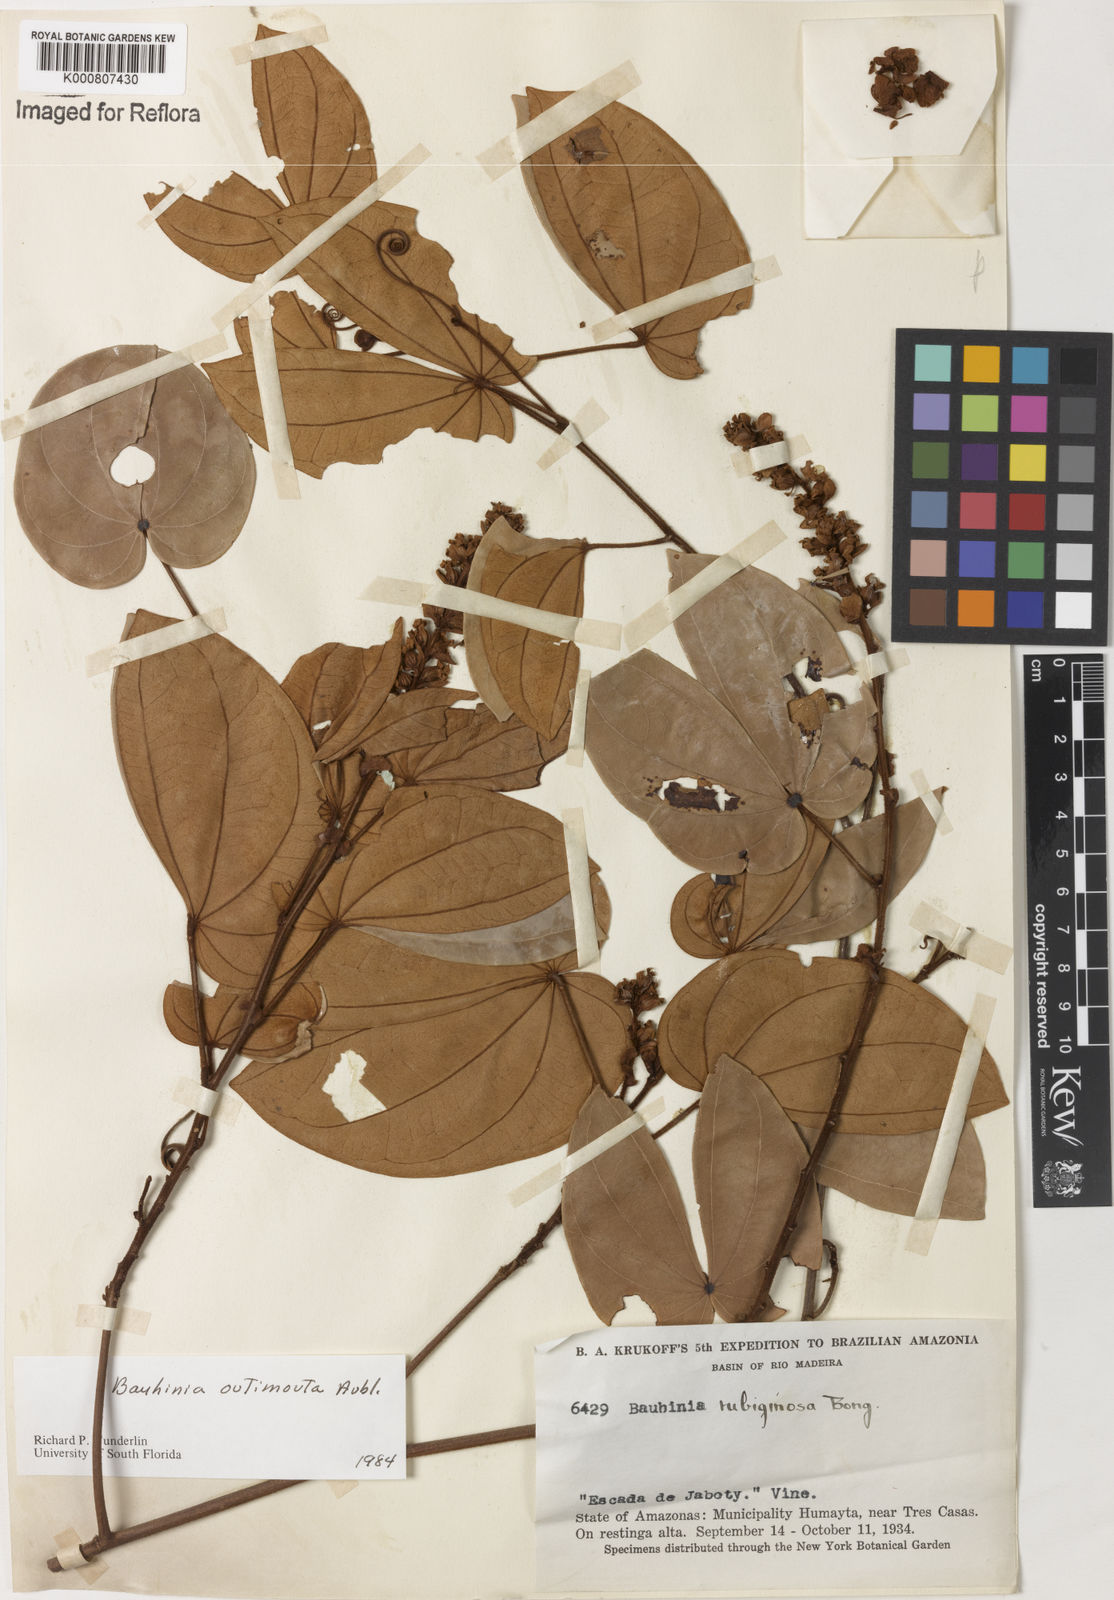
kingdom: Plantae
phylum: Tracheophyta
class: Magnoliopsida
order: Fabales
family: Fabaceae
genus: Schnella
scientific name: Schnella outimouta
